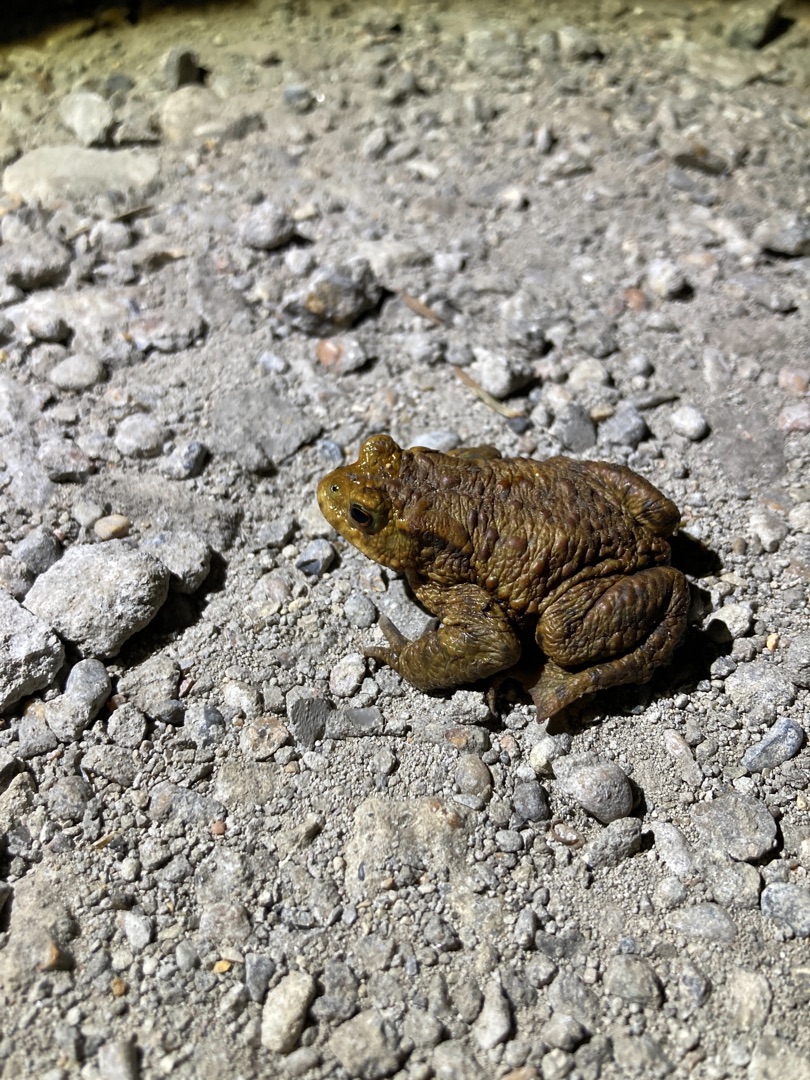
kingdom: Animalia
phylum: Chordata
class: Amphibia
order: Anura
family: Bufonidae
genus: Bufo
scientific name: Bufo bufo
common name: Skrubtudse
